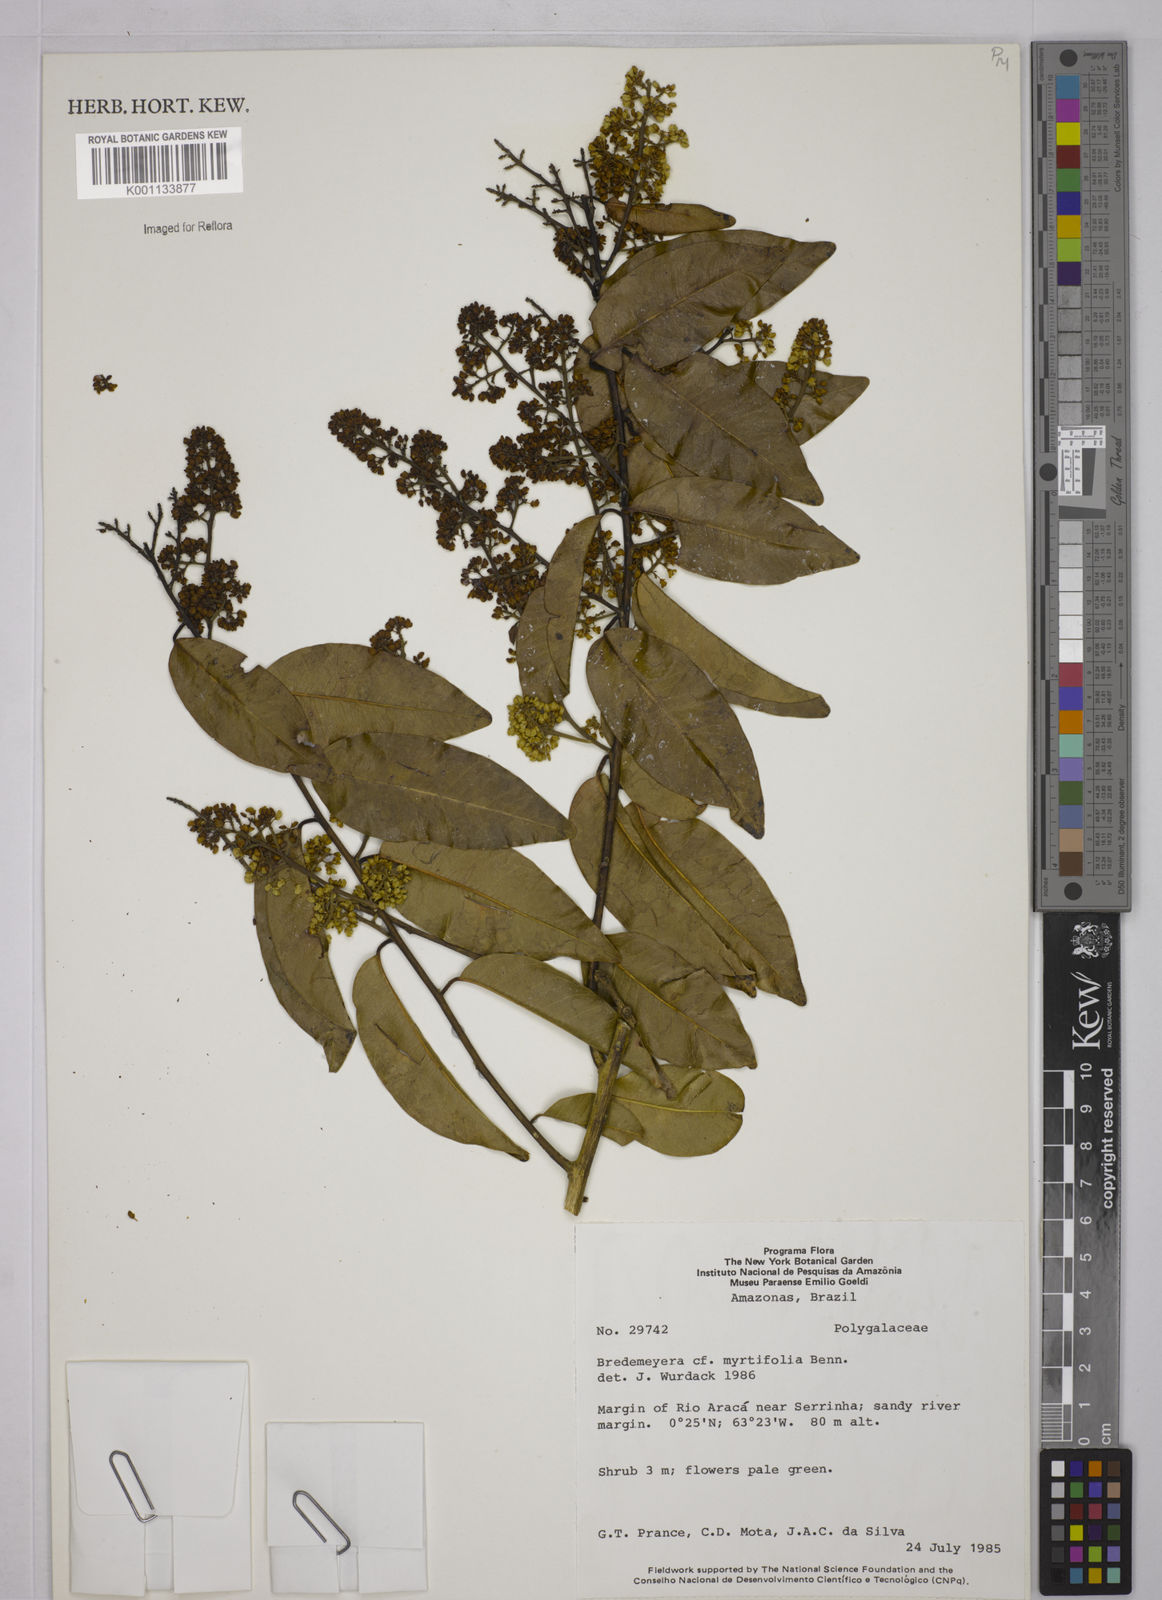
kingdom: Plantae
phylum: Tracheophyta
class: Magnoliopsida
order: Fabales
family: Polygalaceae
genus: Bredemeyera
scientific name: Bredemeyera myrtifolia
